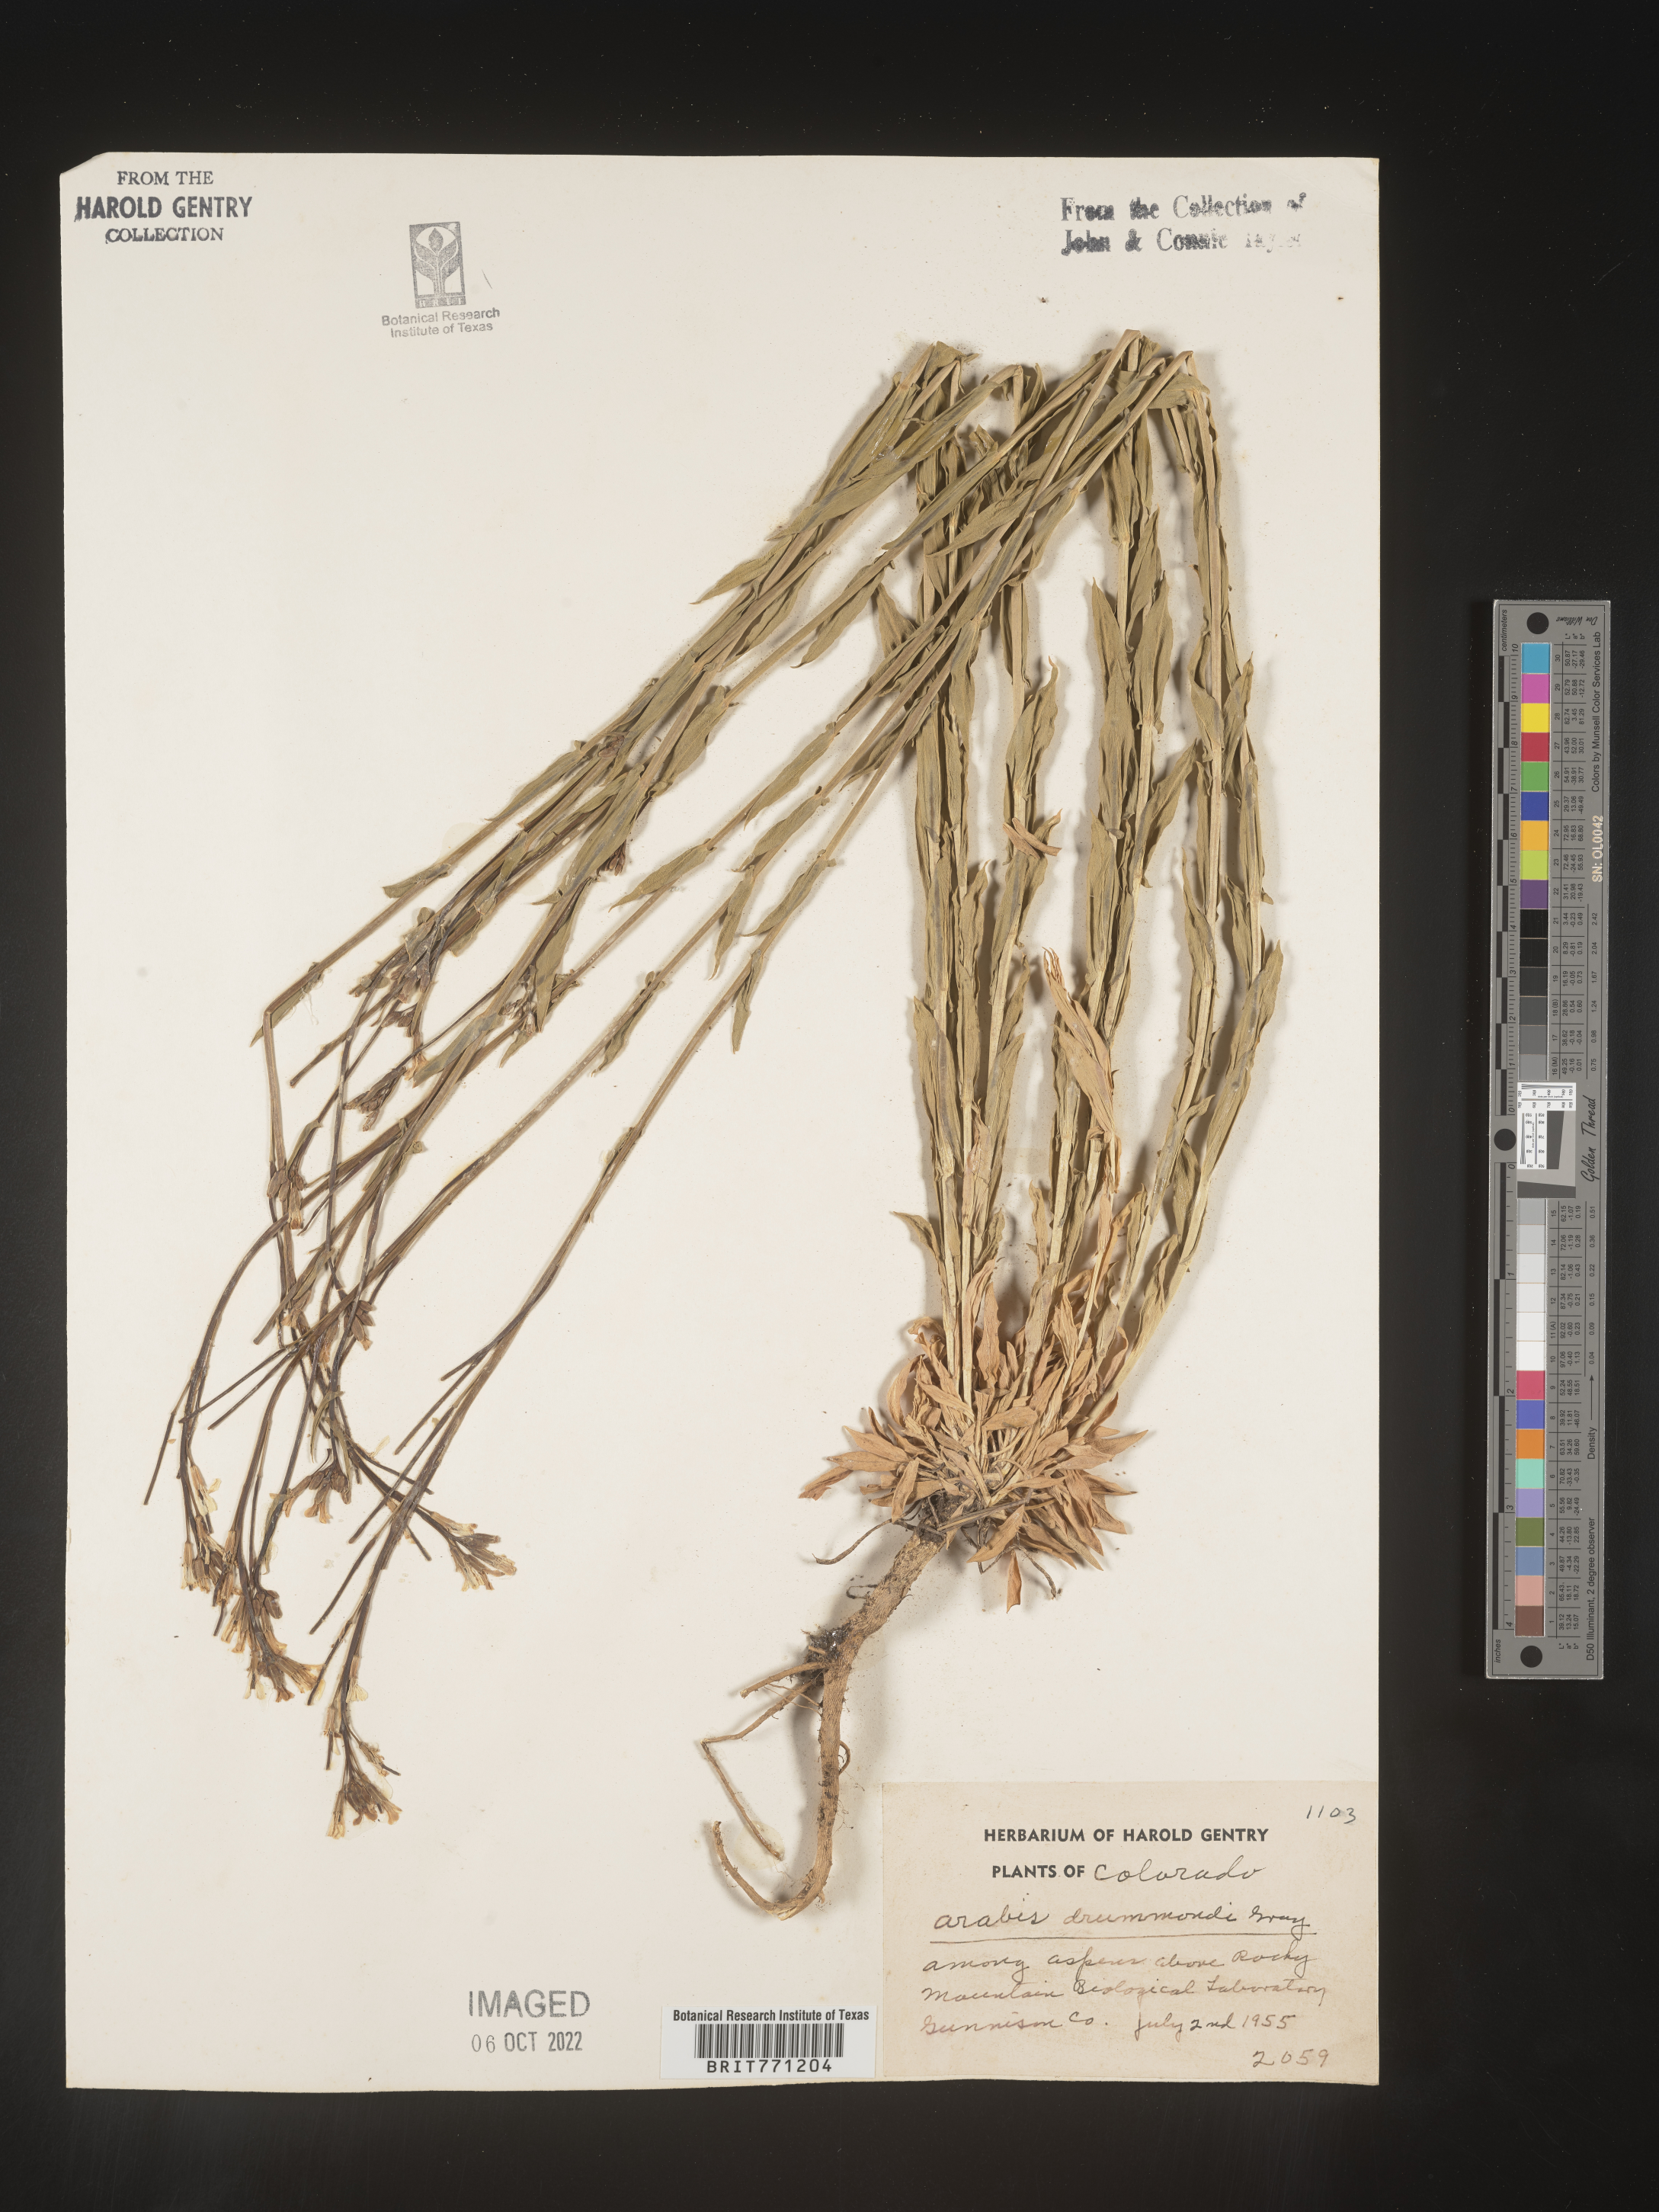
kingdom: Plantae
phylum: Tracheophyta
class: Magnoliopsida
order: Brassicales
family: Brassicaceae
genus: Boechera
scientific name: Boechera stricta
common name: Canadian rockcress
